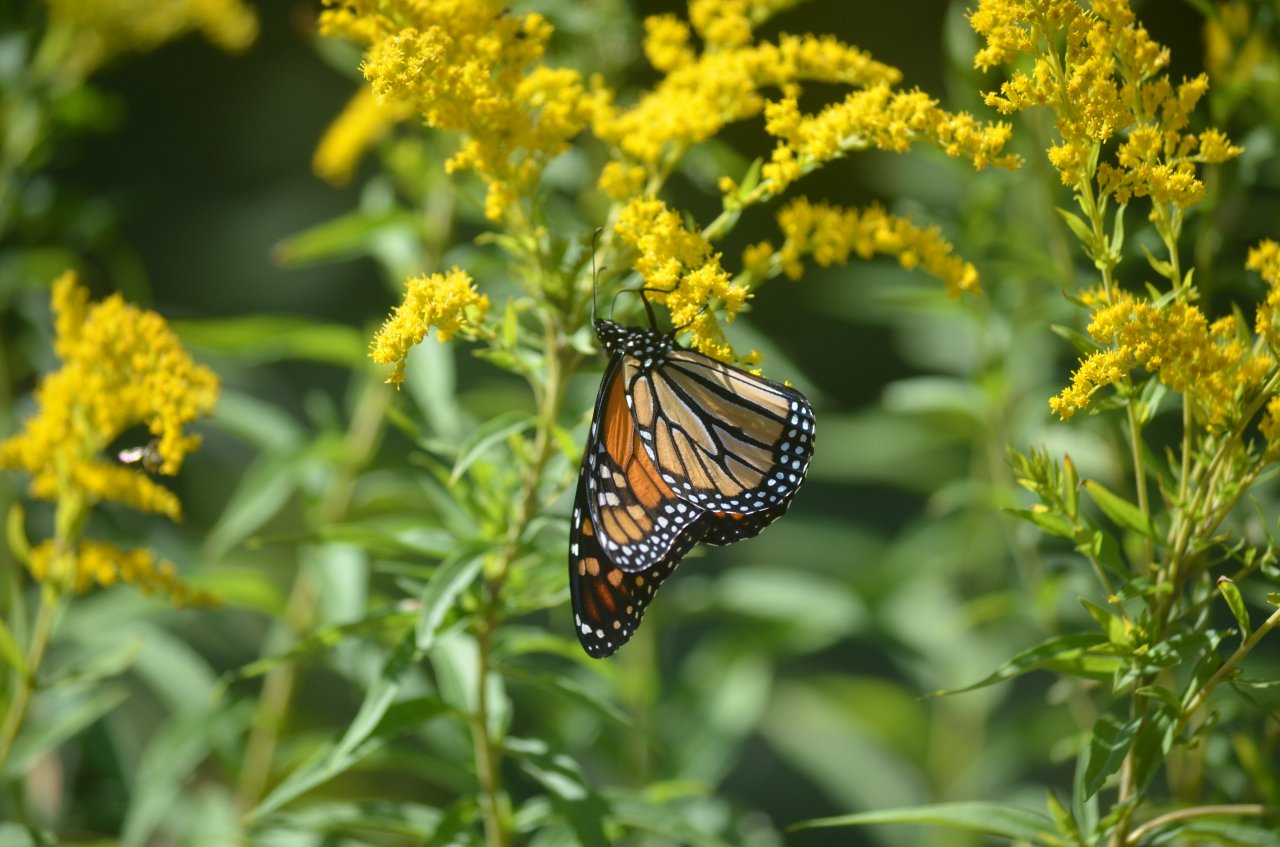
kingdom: Animalia
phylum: Arthropoda
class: Insecta
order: Lepidoptera
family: Nymphalidae
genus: Danaus
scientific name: Danaus plexippus
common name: Monarch
